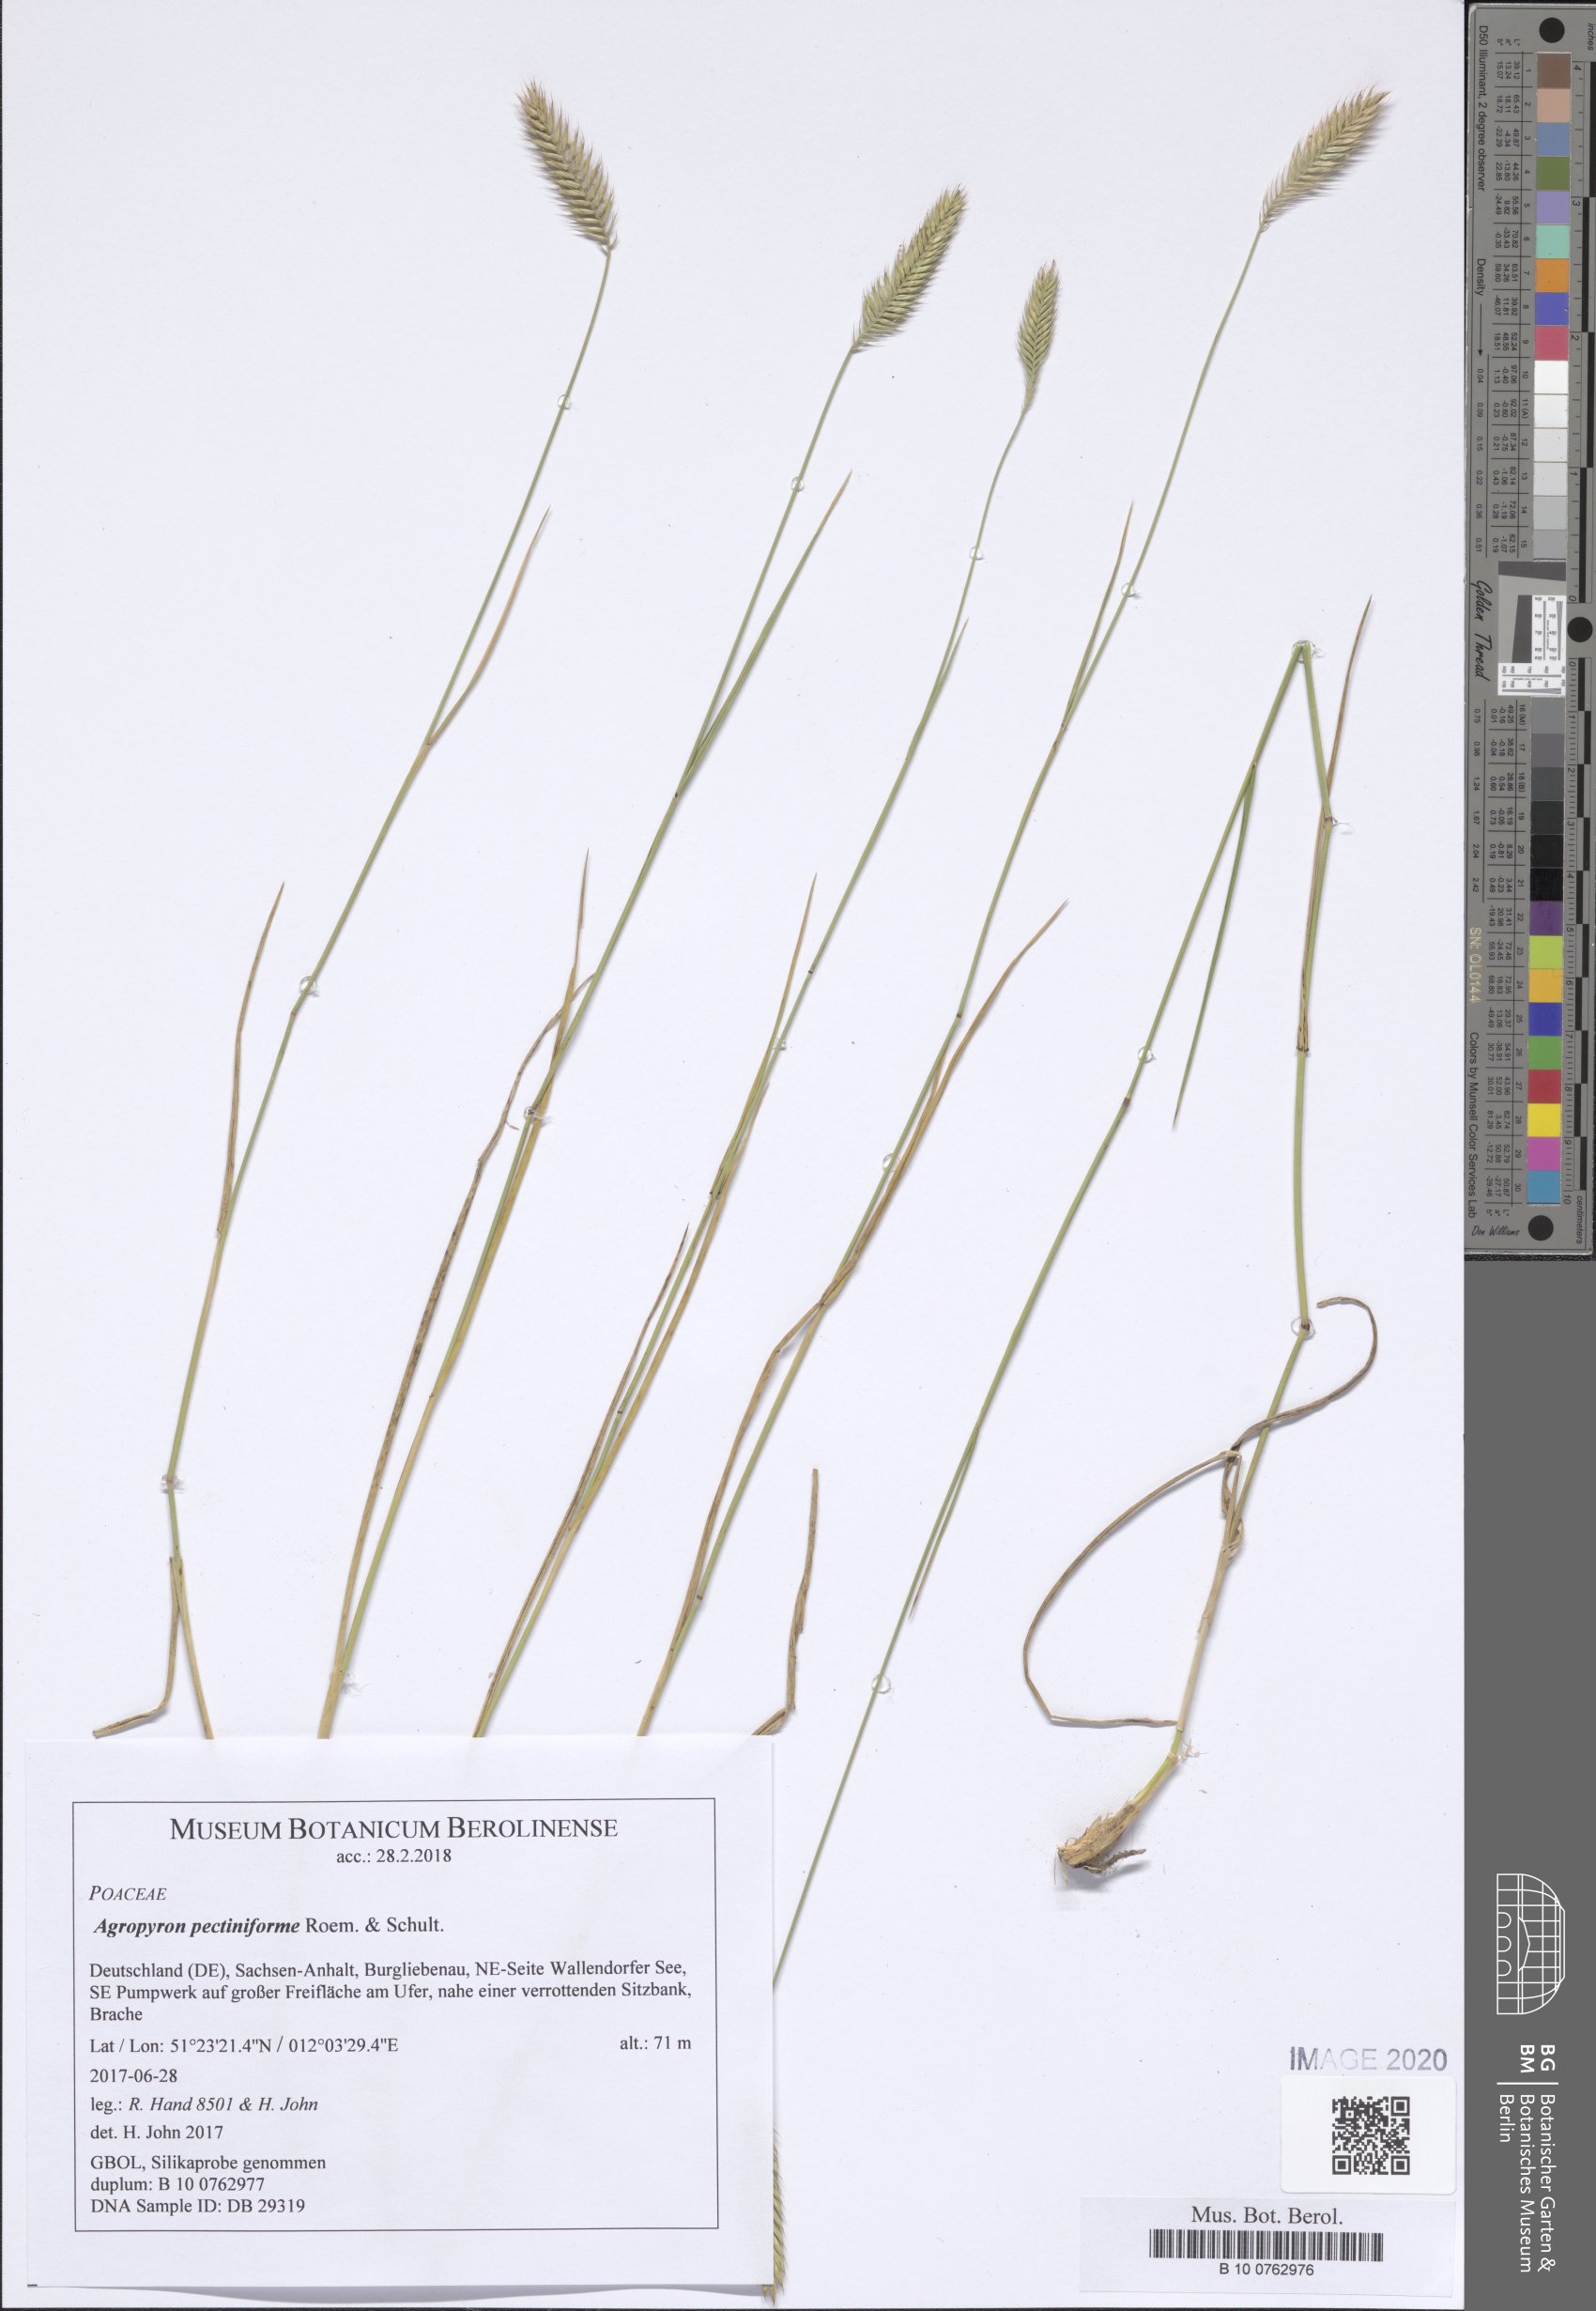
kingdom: Plantae
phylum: Tracheophyta
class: Liliopsida
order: Poales
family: Poaceae
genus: Agropyron
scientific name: Agropyron cristatum
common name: Crested wheatgrass
